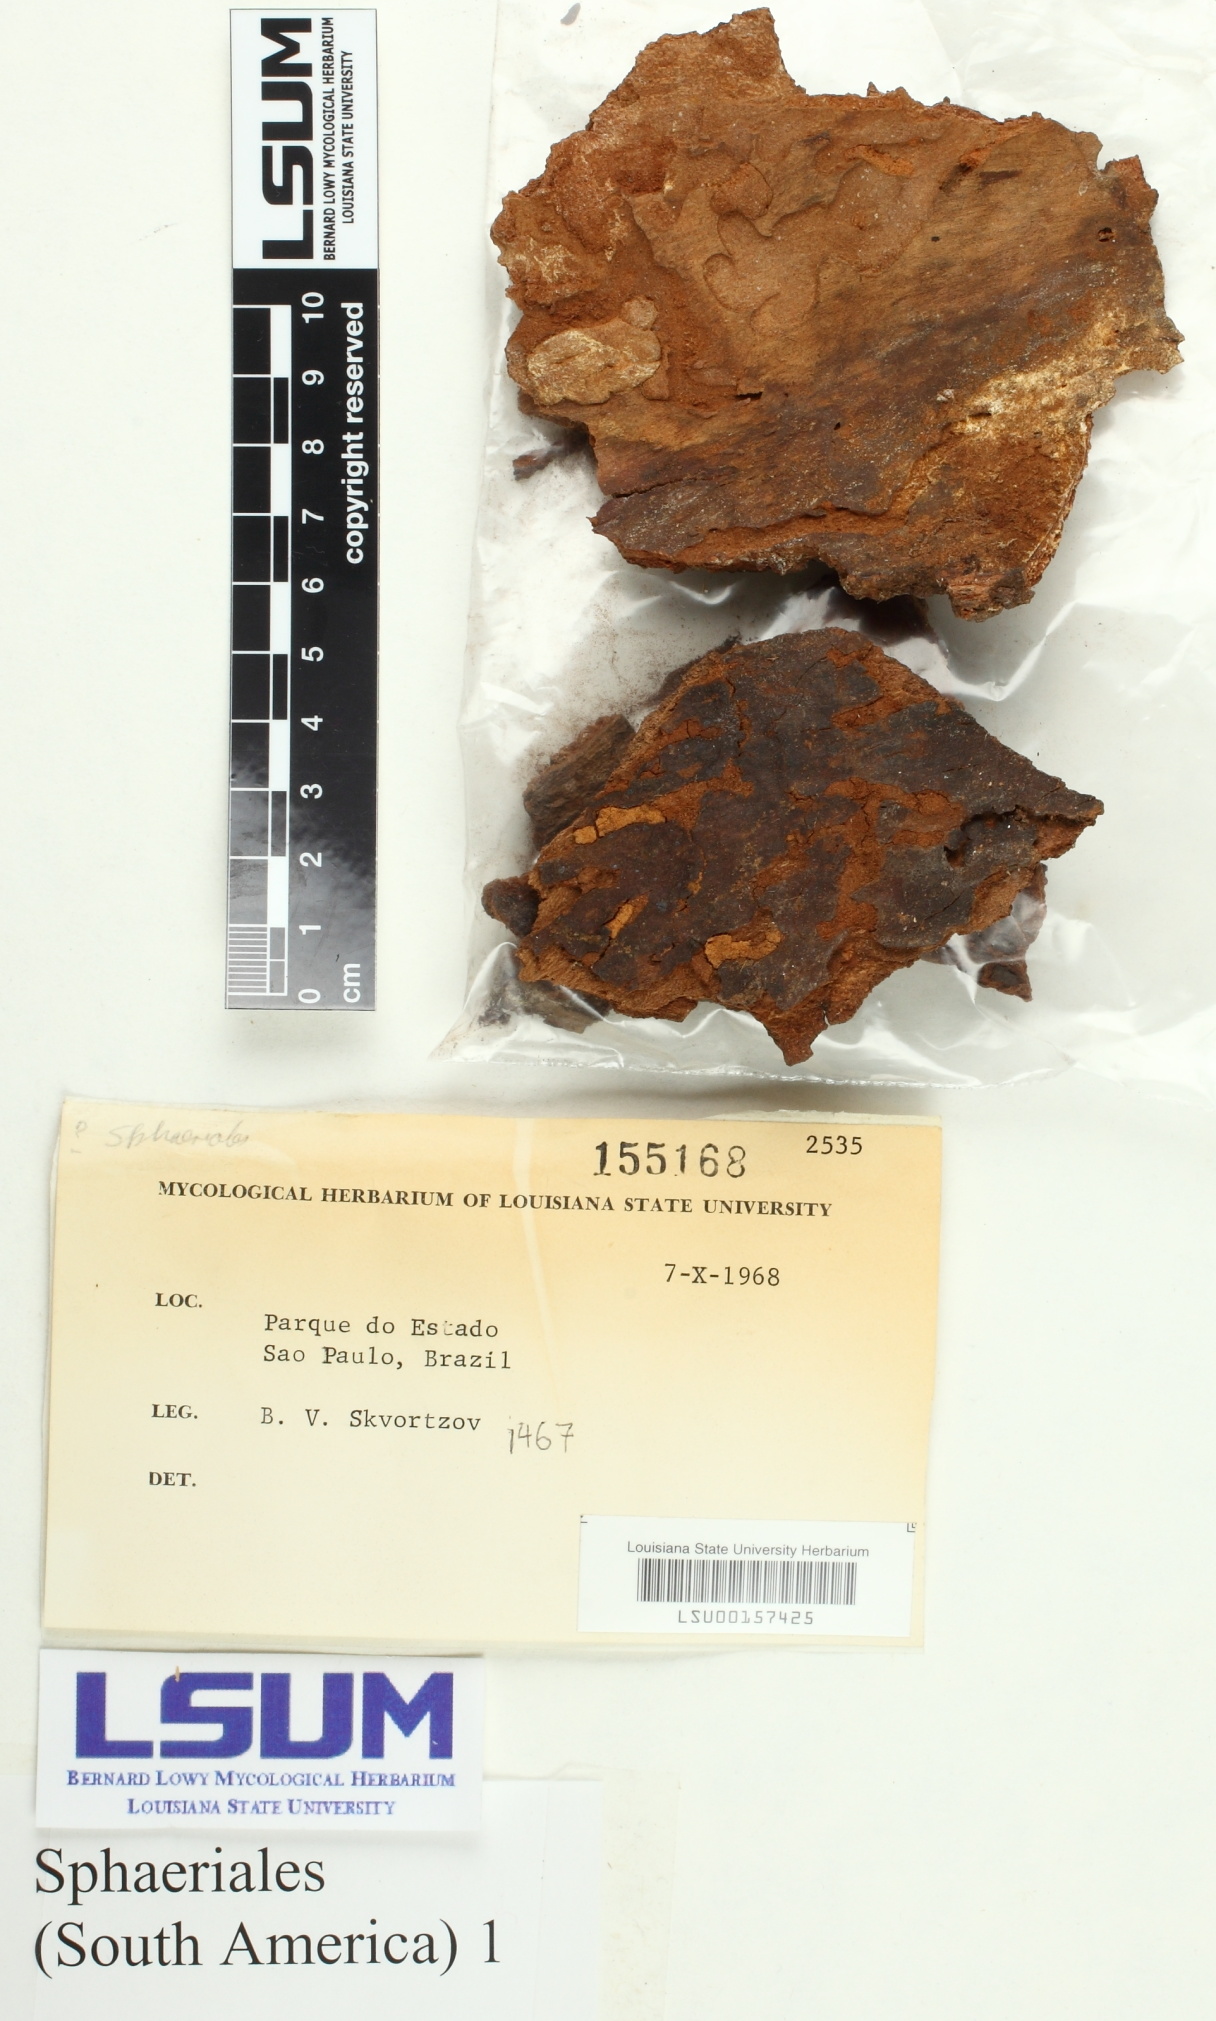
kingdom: Fungi
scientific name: Fungi
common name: Fungi
